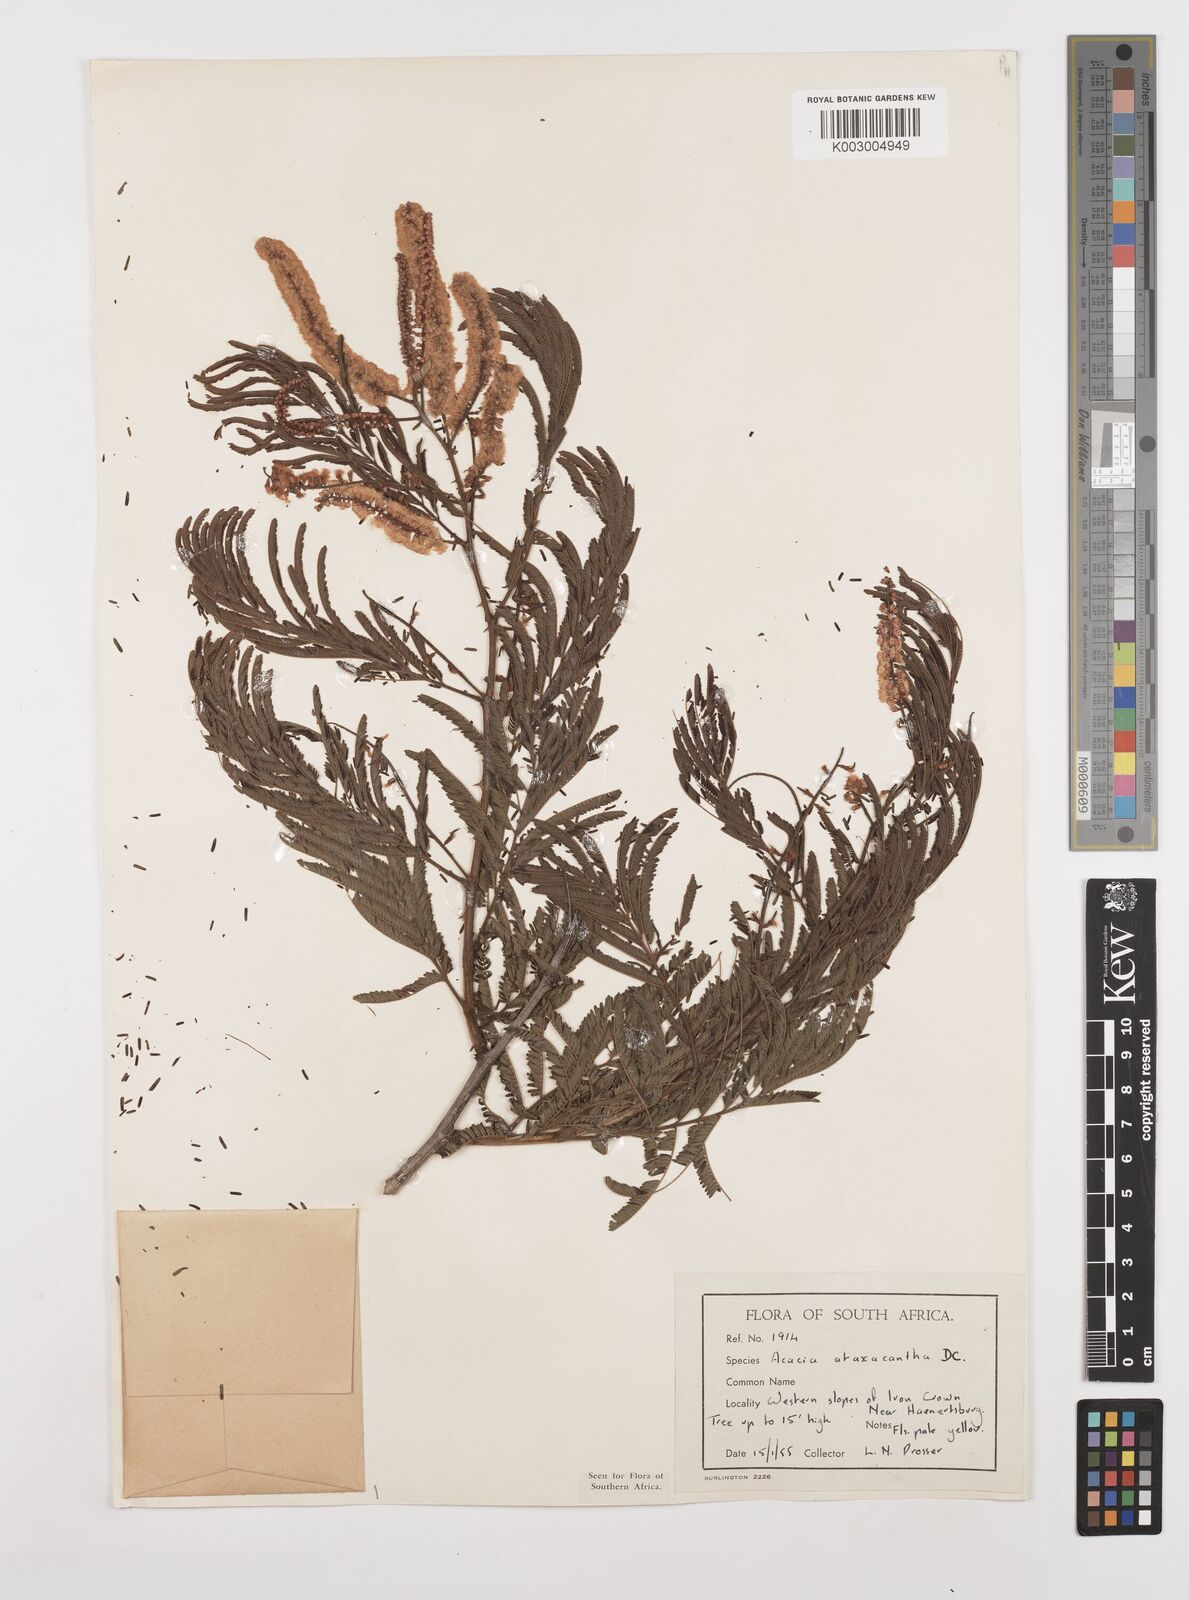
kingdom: Plantae
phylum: Tracheophyta
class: Magnoliopsida
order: Fabales
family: Fabaceae
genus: Senegalia
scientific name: Senegalia ataxacantha
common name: Flame acacia
